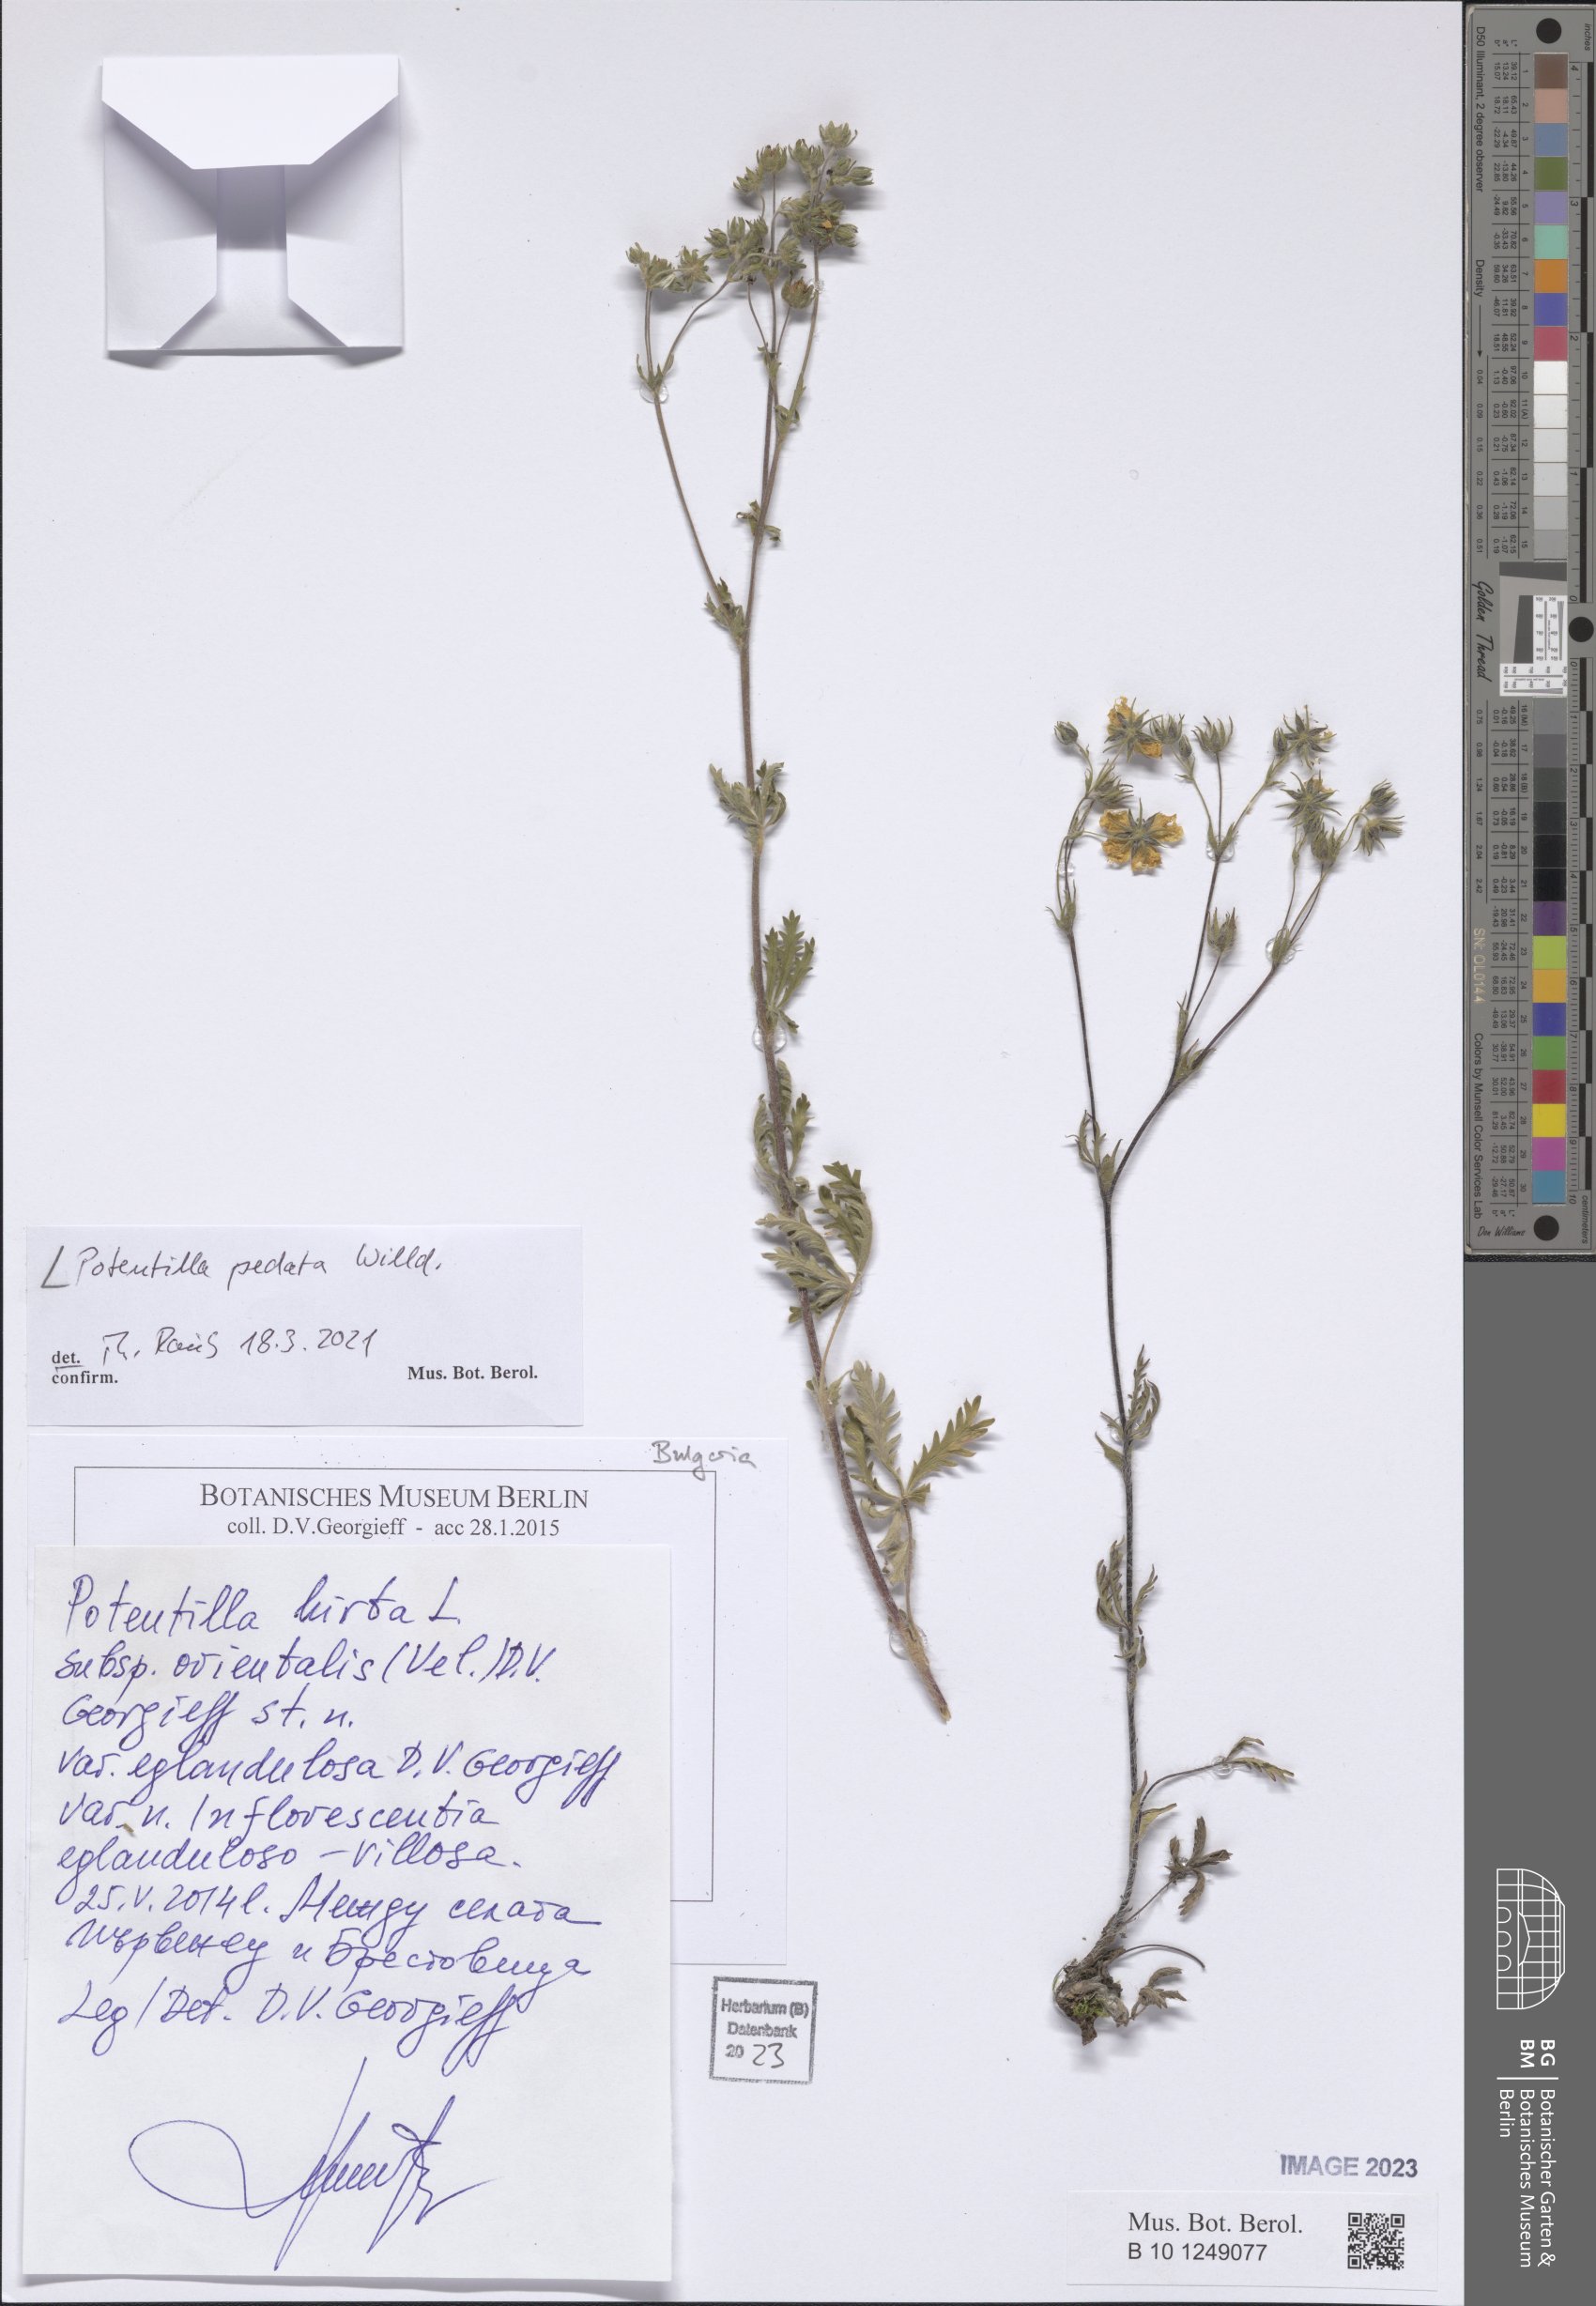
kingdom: Plantae
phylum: Tracheophyta
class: Magnoliopsida
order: Rosales
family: Rosaceae
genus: Potentilla
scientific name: Potentilla pedata
